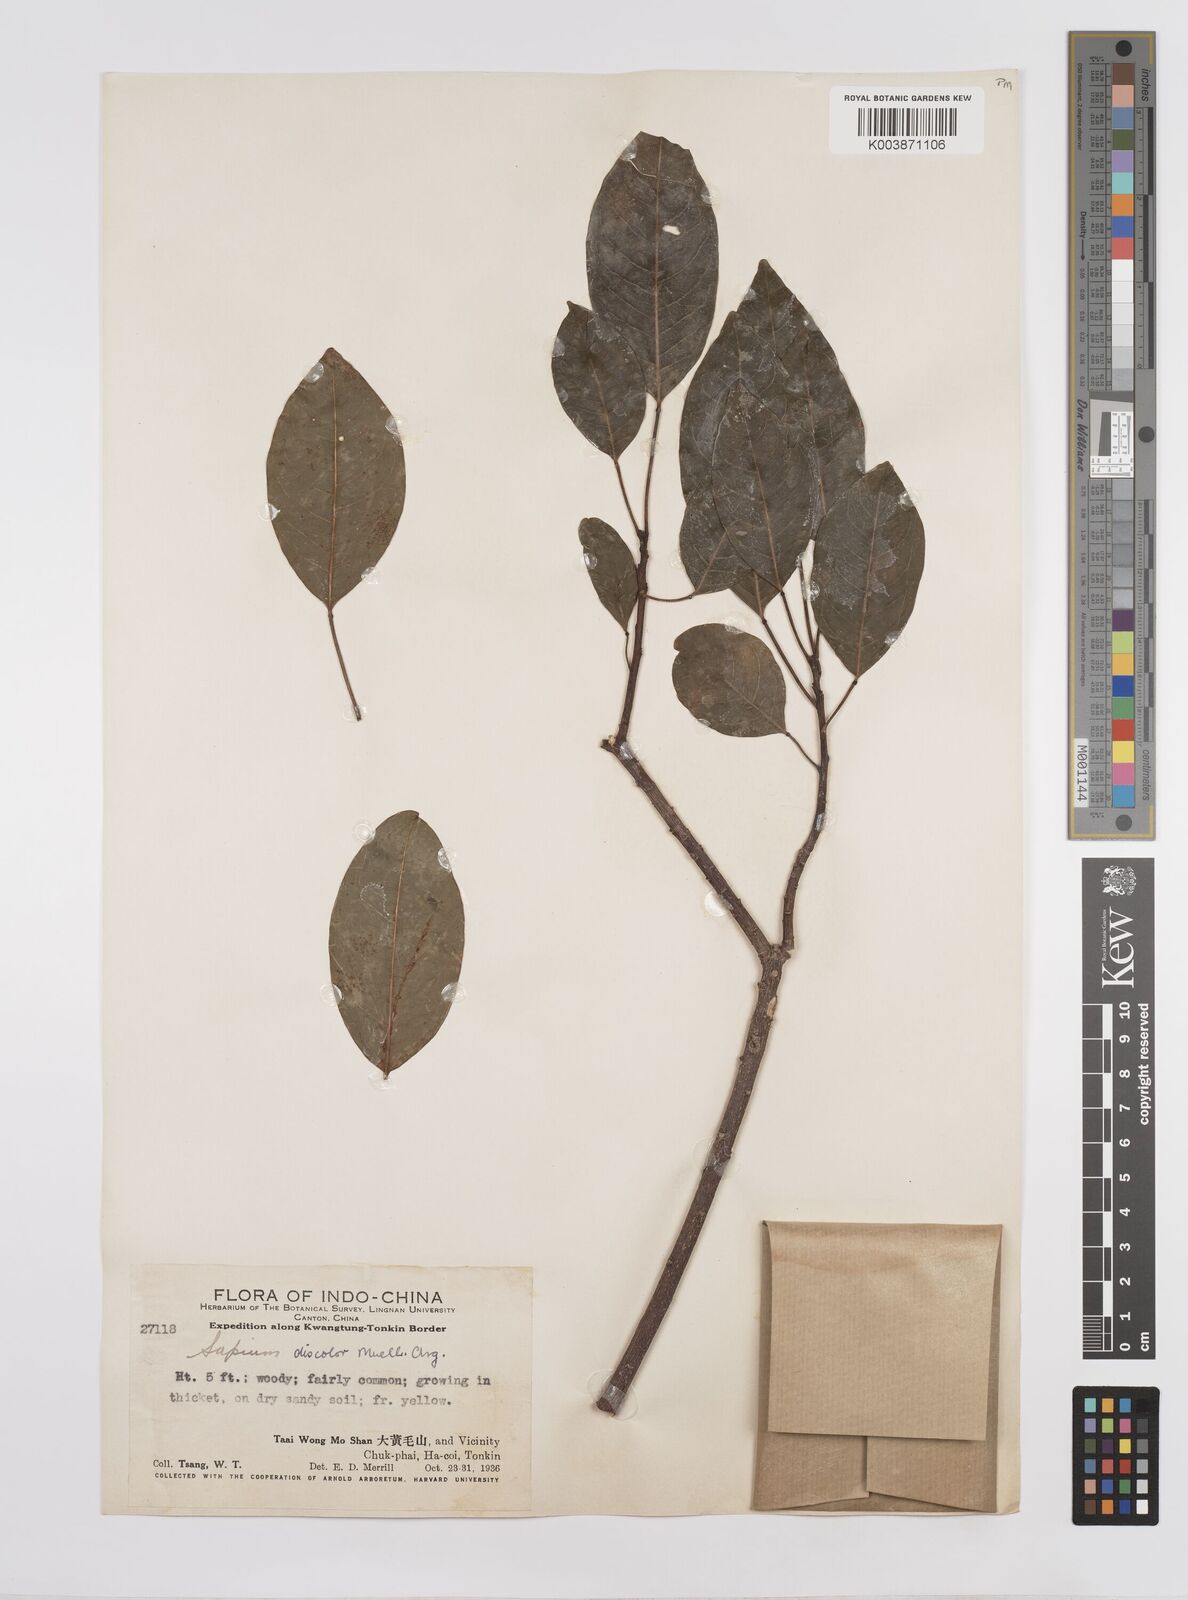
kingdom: Plantae
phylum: Tracheophyta
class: Magnoliopsida
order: Malpighiales
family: Euphorbiaceae
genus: Triadica
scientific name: Triadica cochinchinensis
